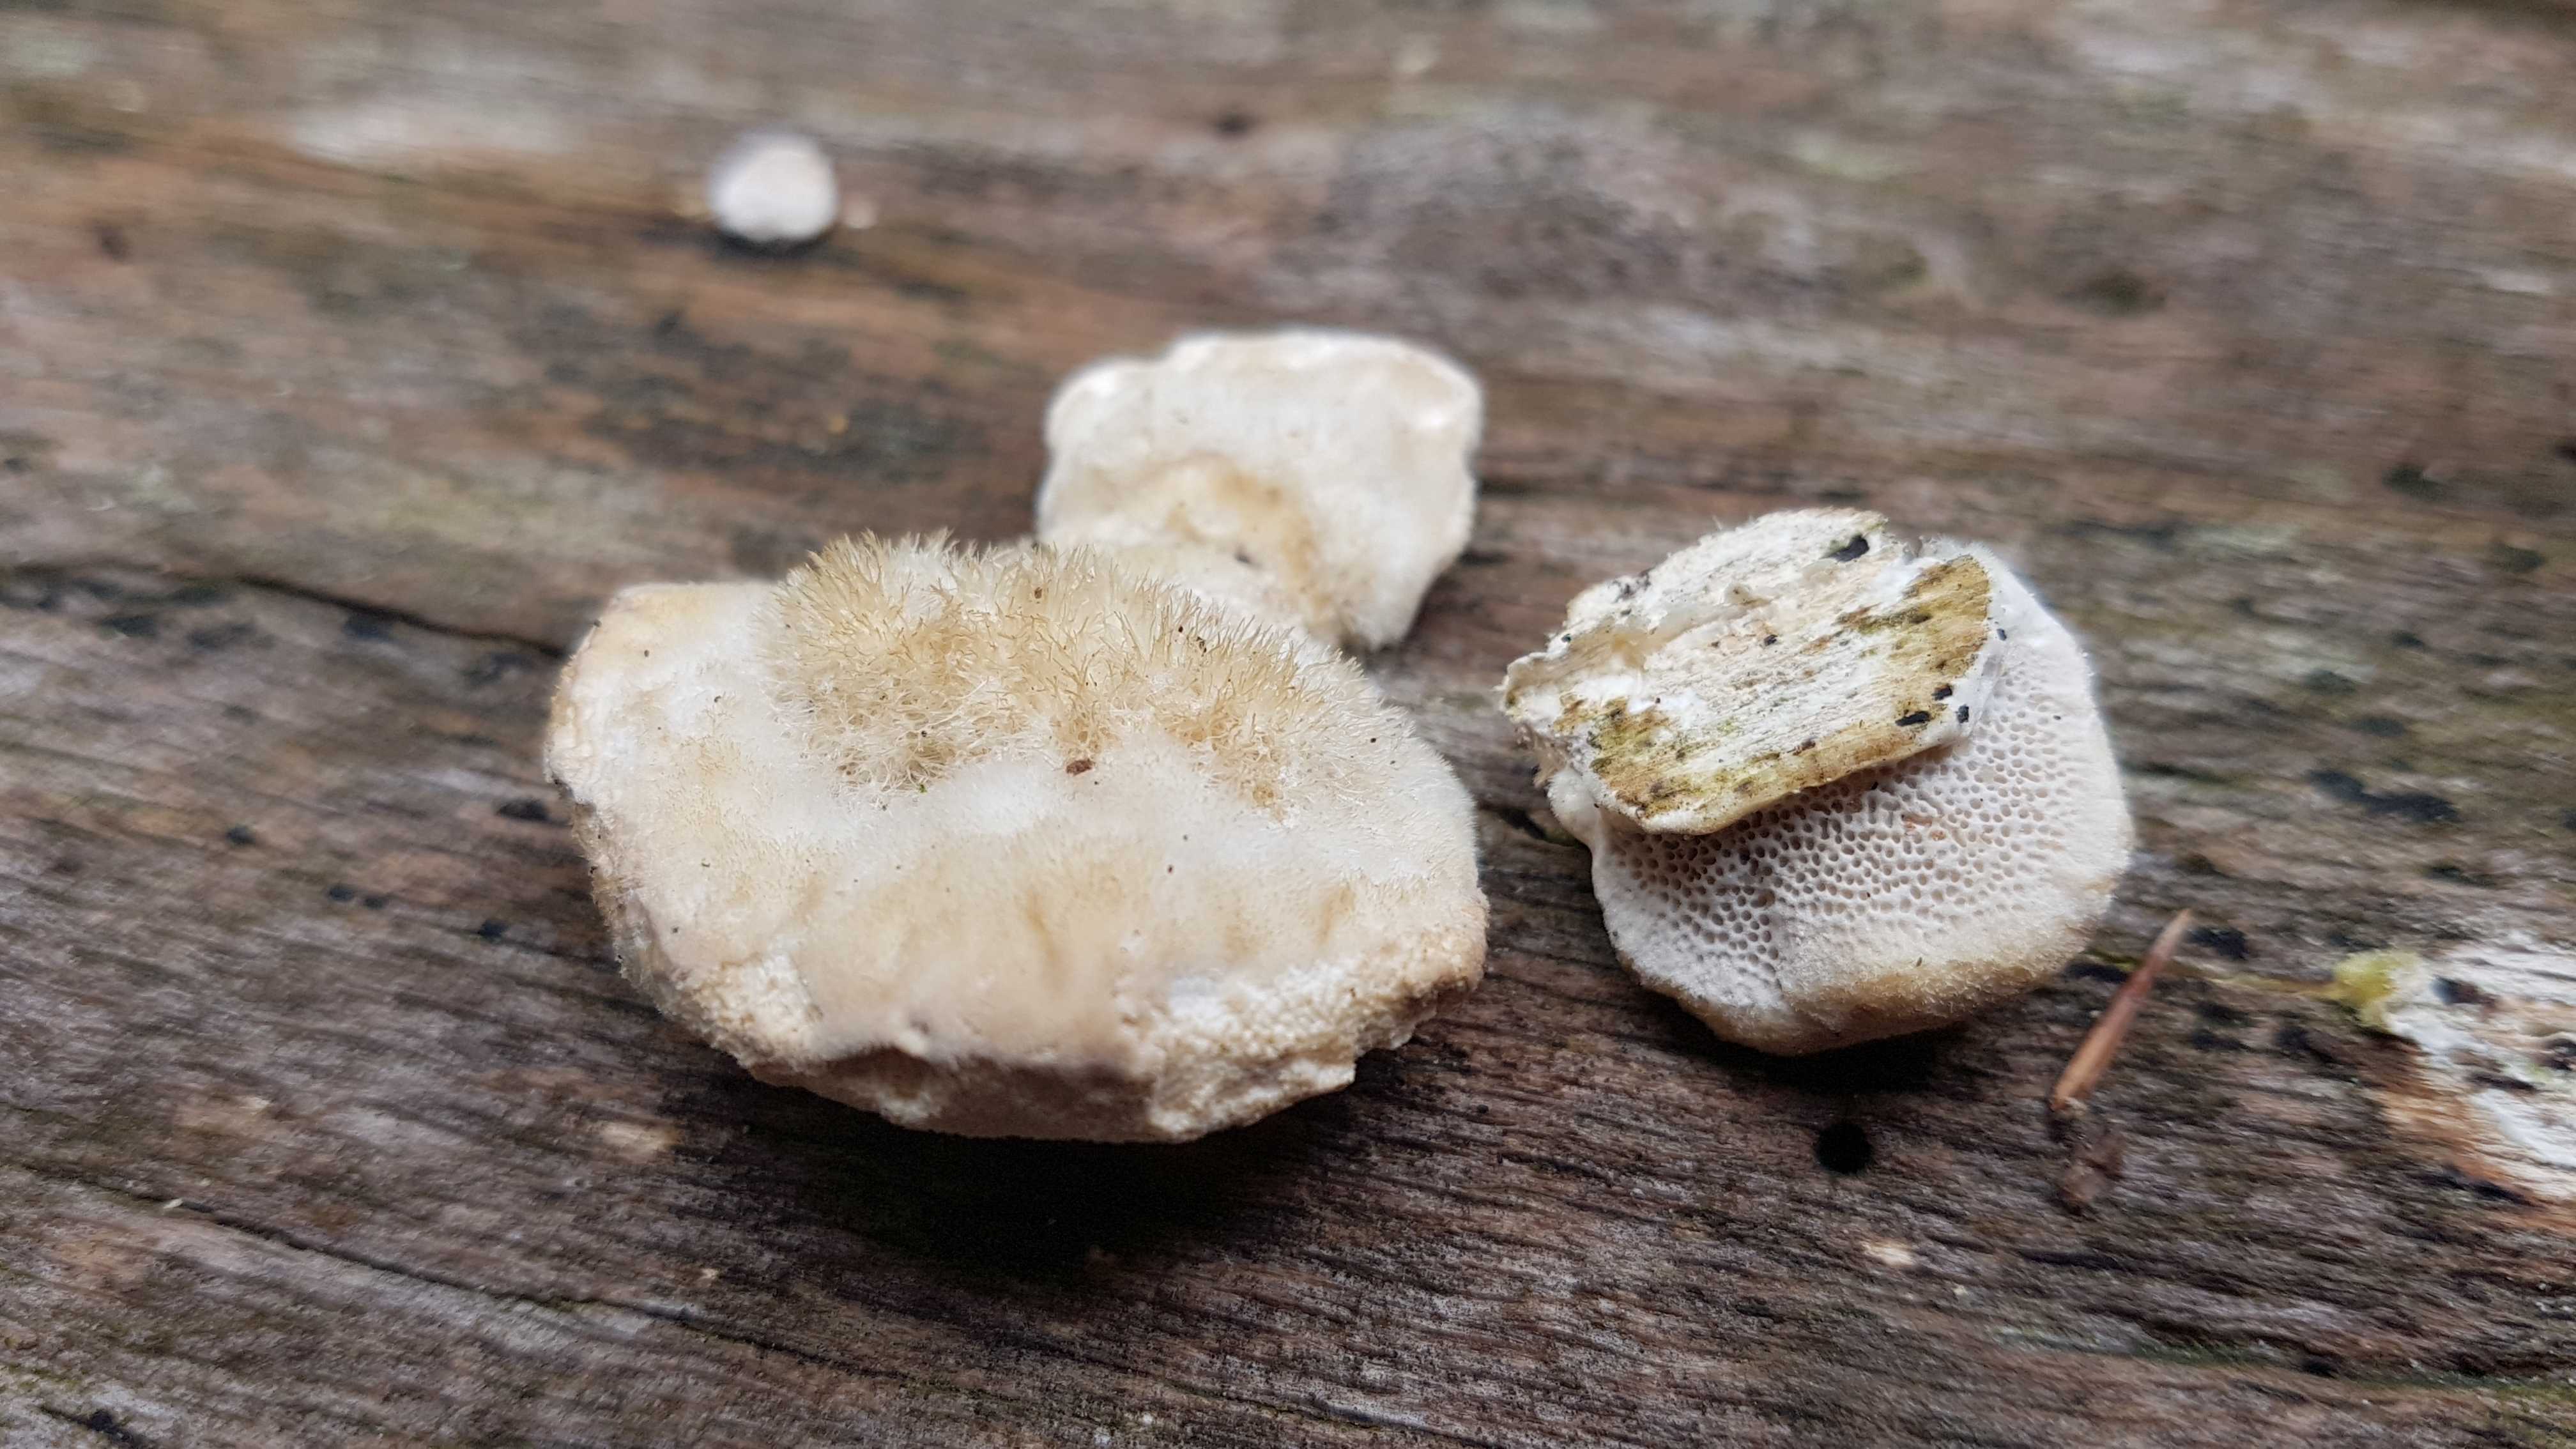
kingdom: Fungi
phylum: Basidiomycota
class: Agaricomycetes
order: Polyporales
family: Polyporaceae
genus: Trametes
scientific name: Trametes hirsuta
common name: håret læderporesvamp
